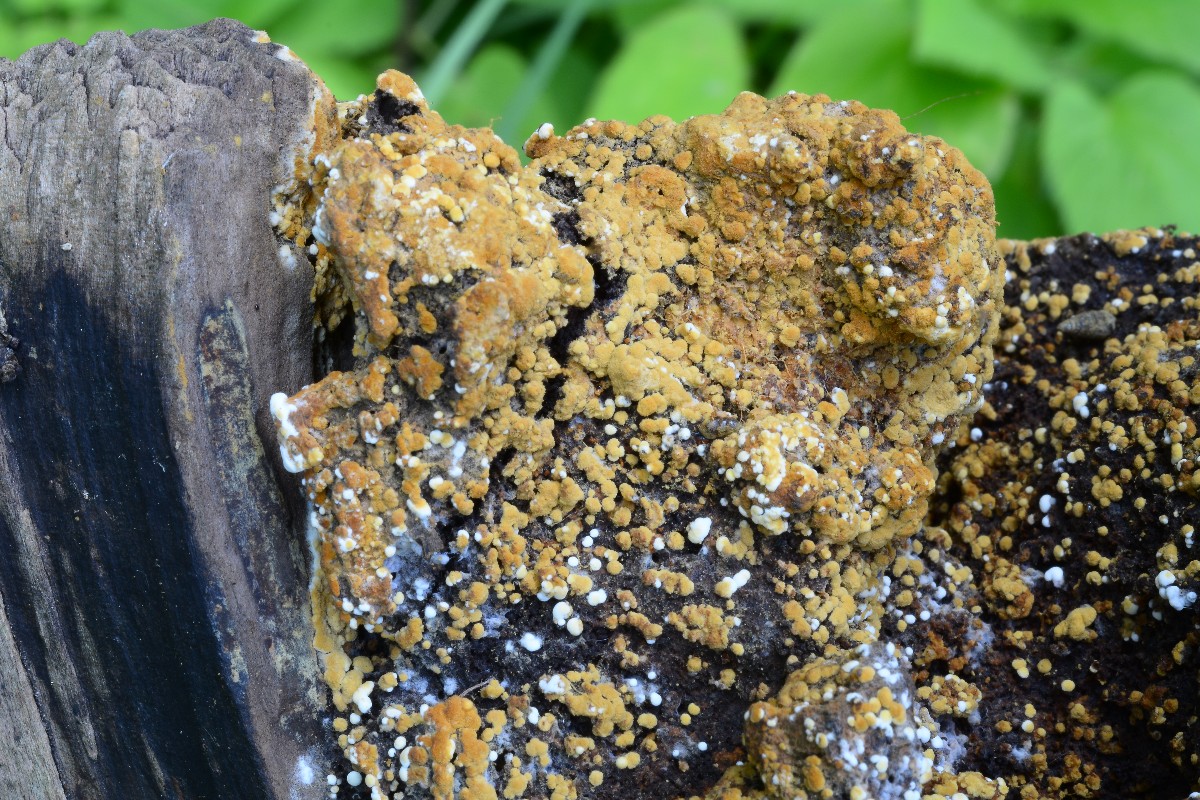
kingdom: Fungi
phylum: Basidiomycota
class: Agaricomycetes
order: Cantharellales
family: Botryobasidiaceae
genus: Botryobasidium
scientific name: Botryobasidium aureum
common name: gylden spindhinde
